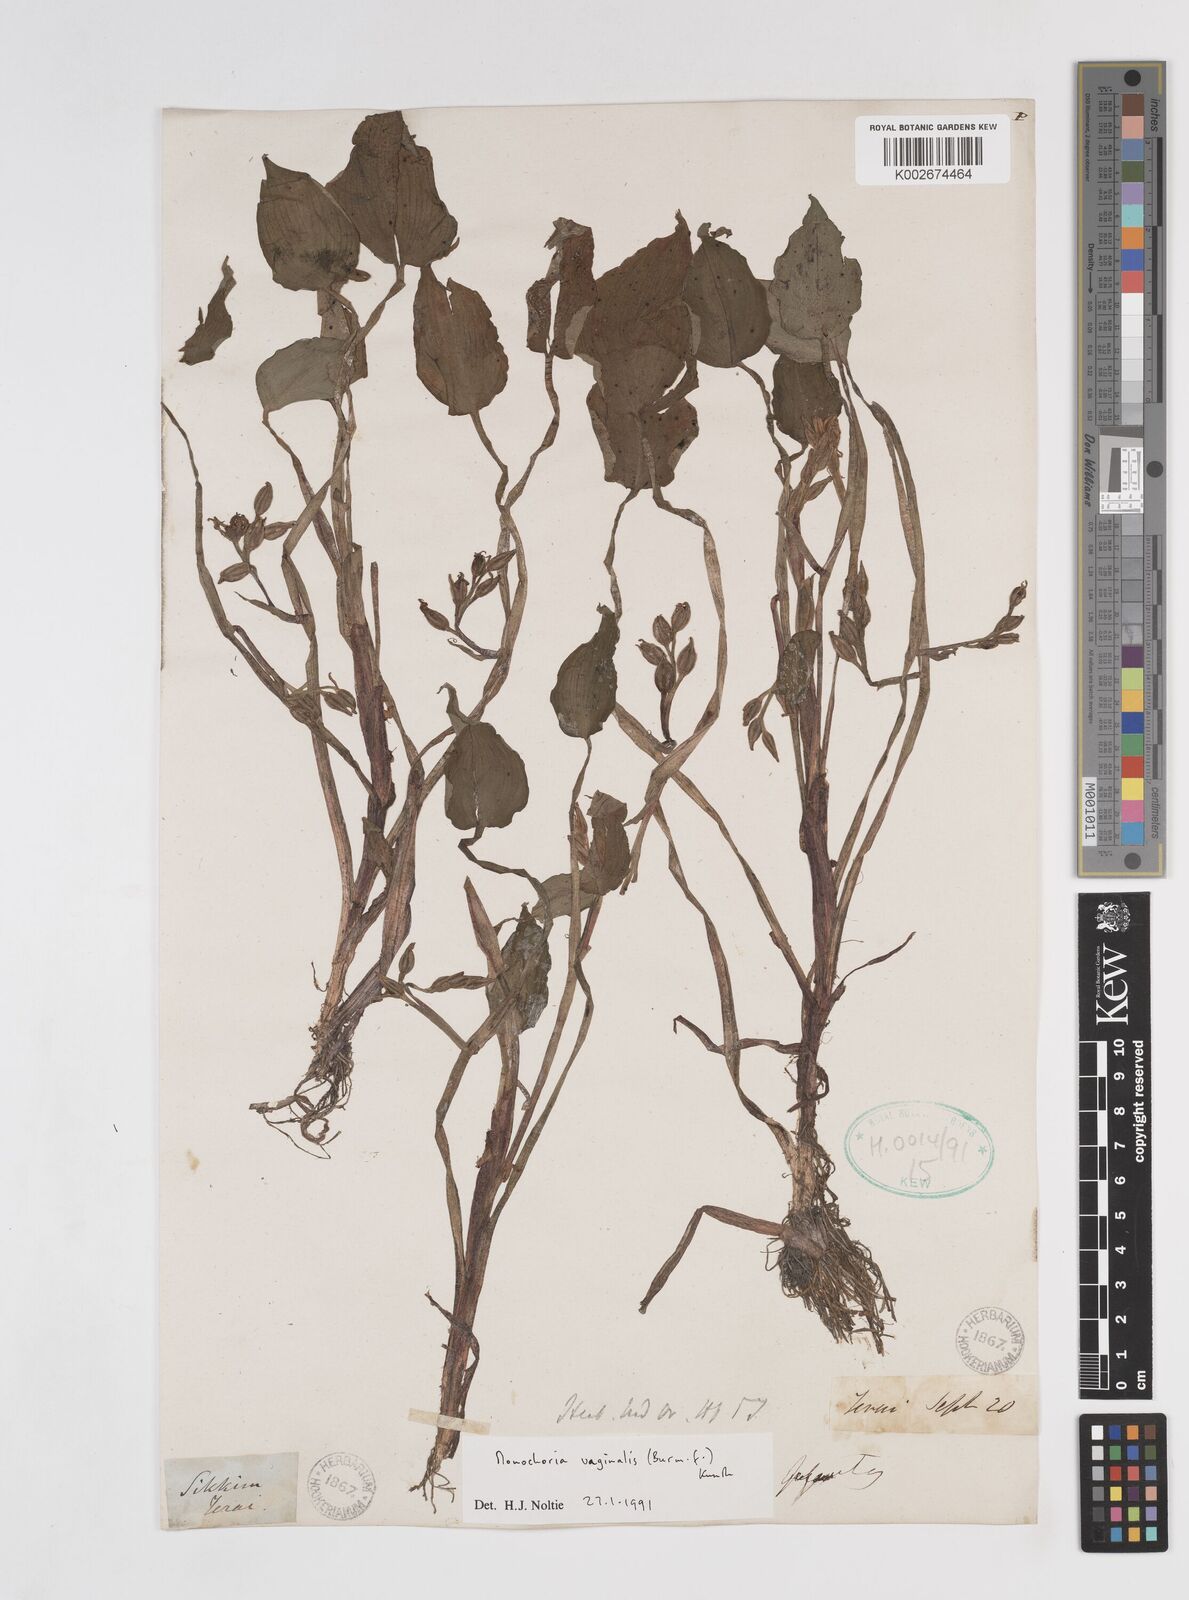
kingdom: Plantae
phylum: Tracheophyta
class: Liliopsida
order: Commelinales
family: Pontederiaceae
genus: Pontederia
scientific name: Pontederia vaginalis
